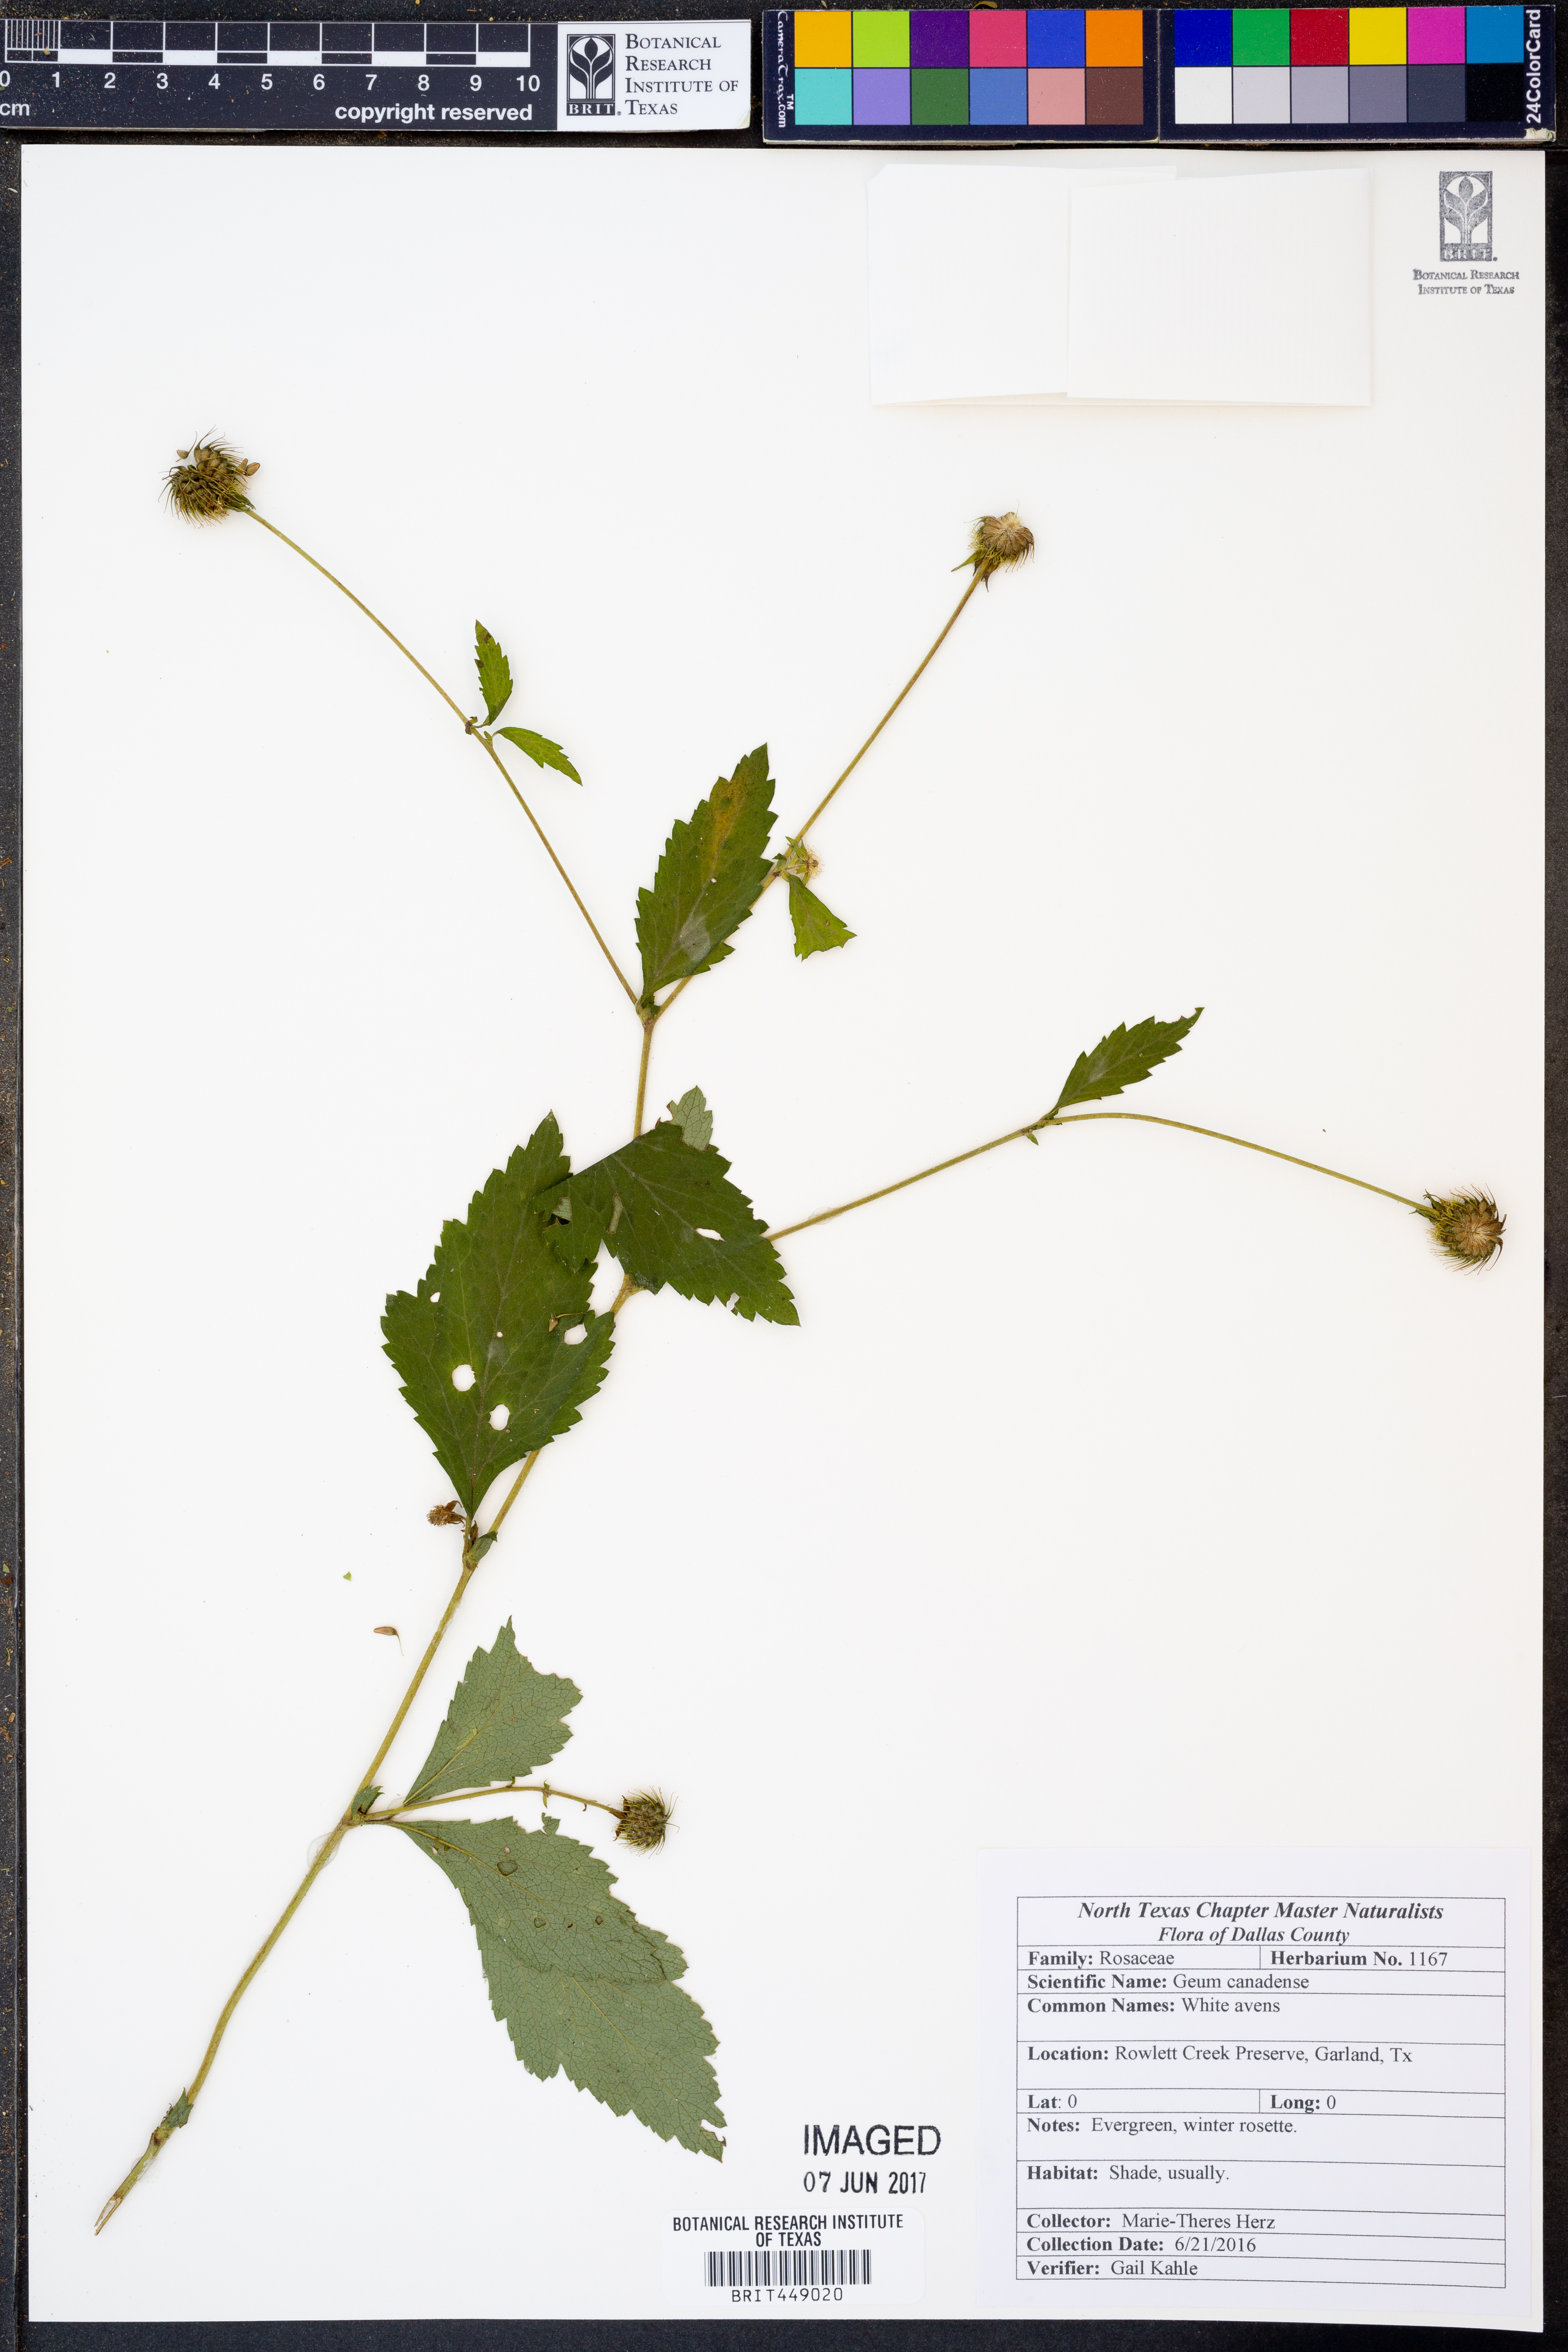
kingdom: Plantae
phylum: Tracheophyta
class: Magnoliopsida
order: Rosales
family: Rosaceae
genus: Geum
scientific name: Geum canadense
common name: White avens
